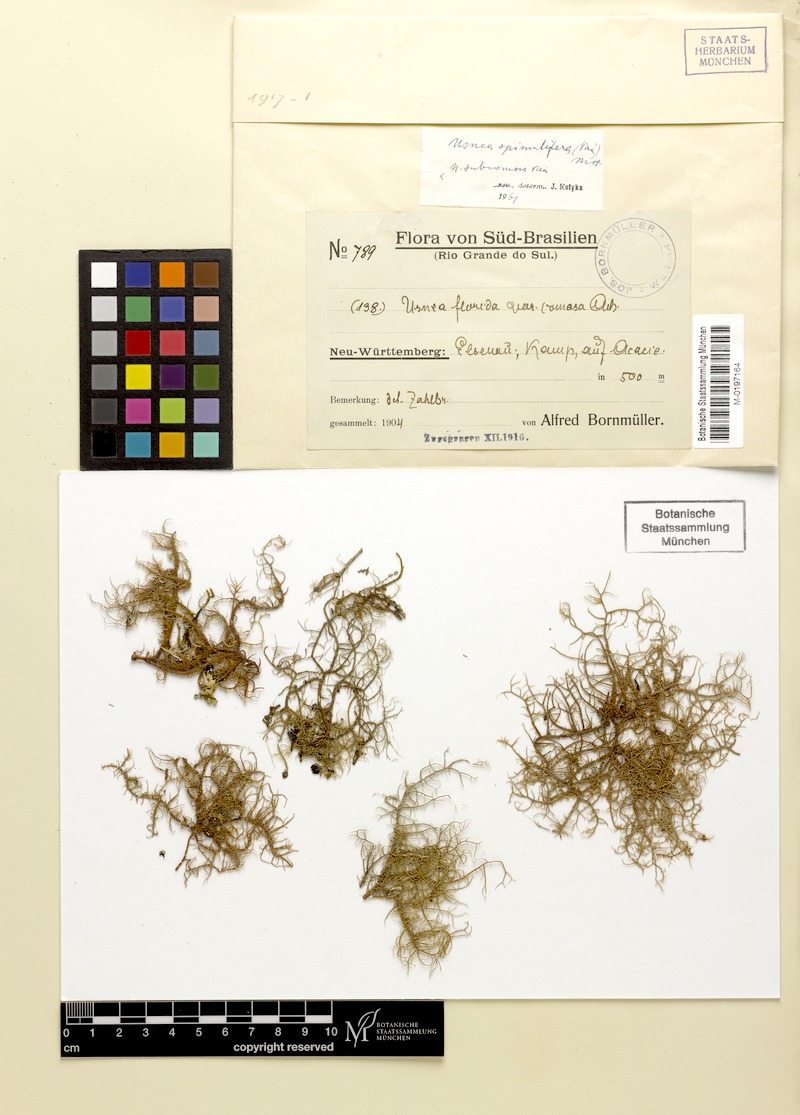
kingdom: Fungi
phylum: Ascomycota
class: Lecanoromycetes
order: Lecanorales
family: Parmeliaceae
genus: Usnea
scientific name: Usnea spinulifera
